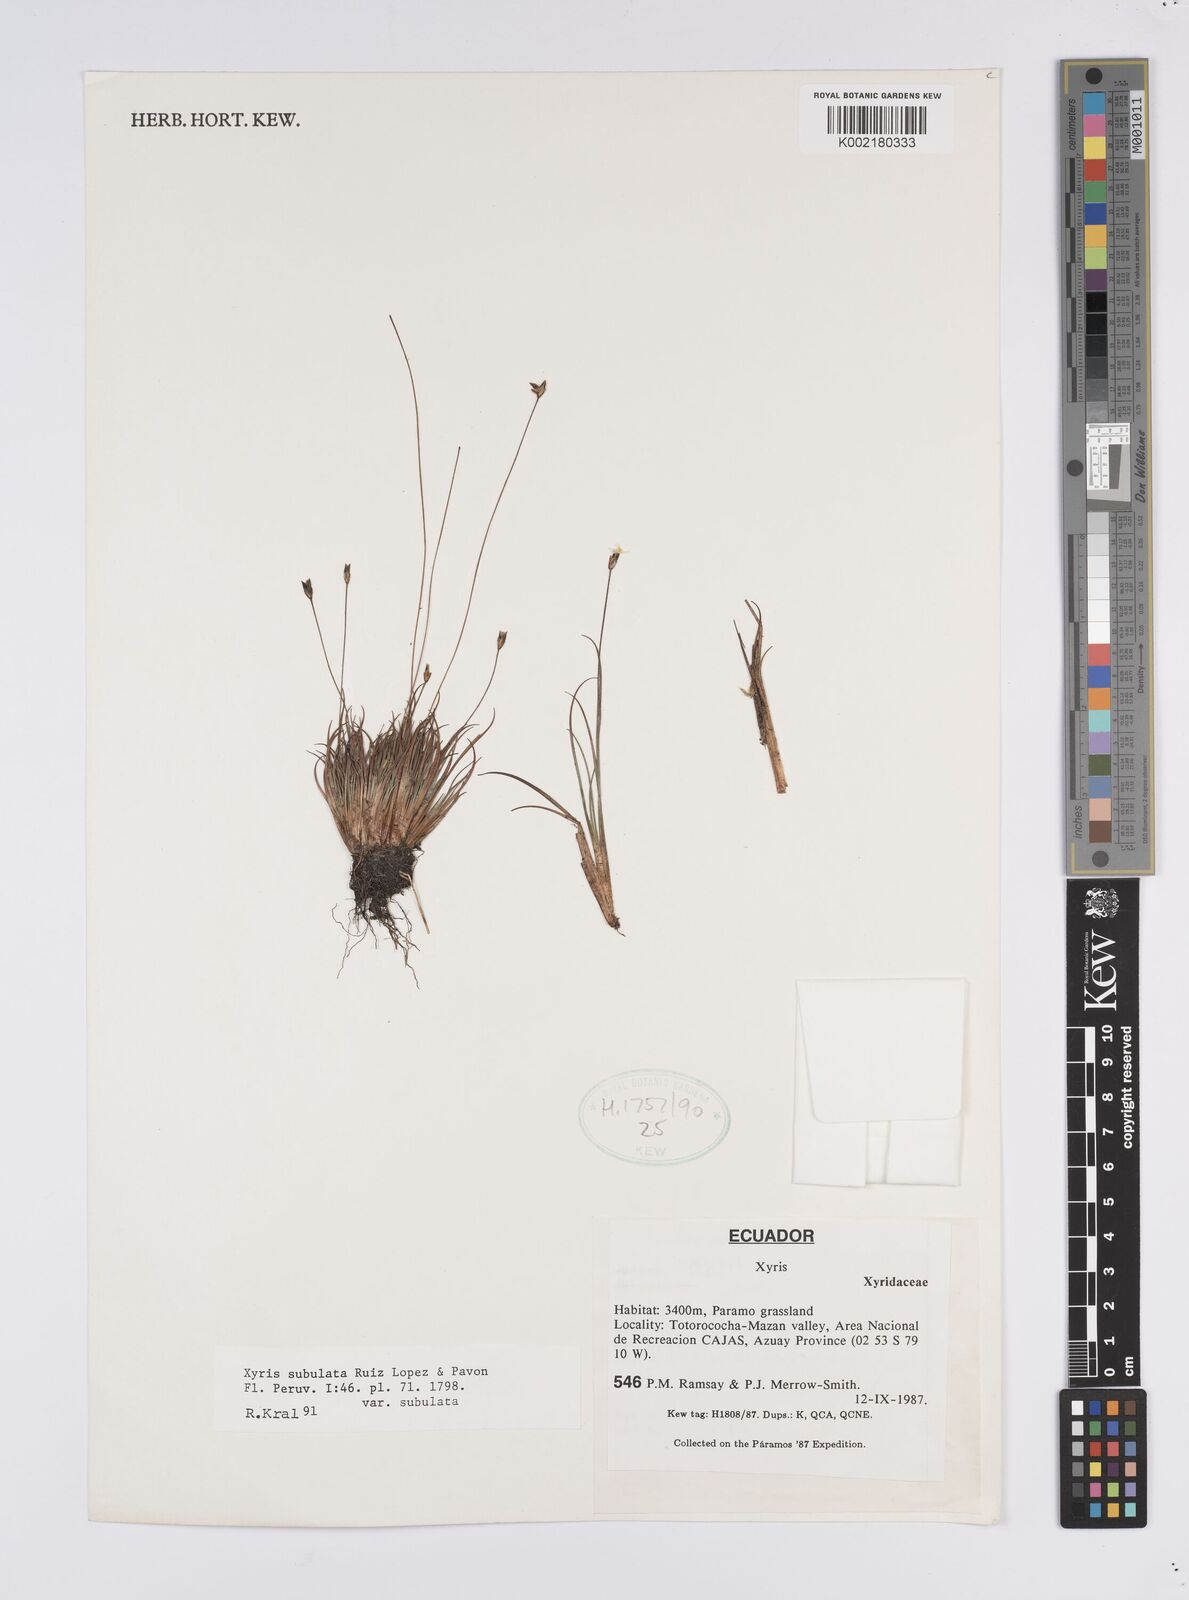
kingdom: Plantae
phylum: Tracheophyta
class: Liliopsida
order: Poales
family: Xyridaceae
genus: Xyris
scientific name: Xyris subulata
